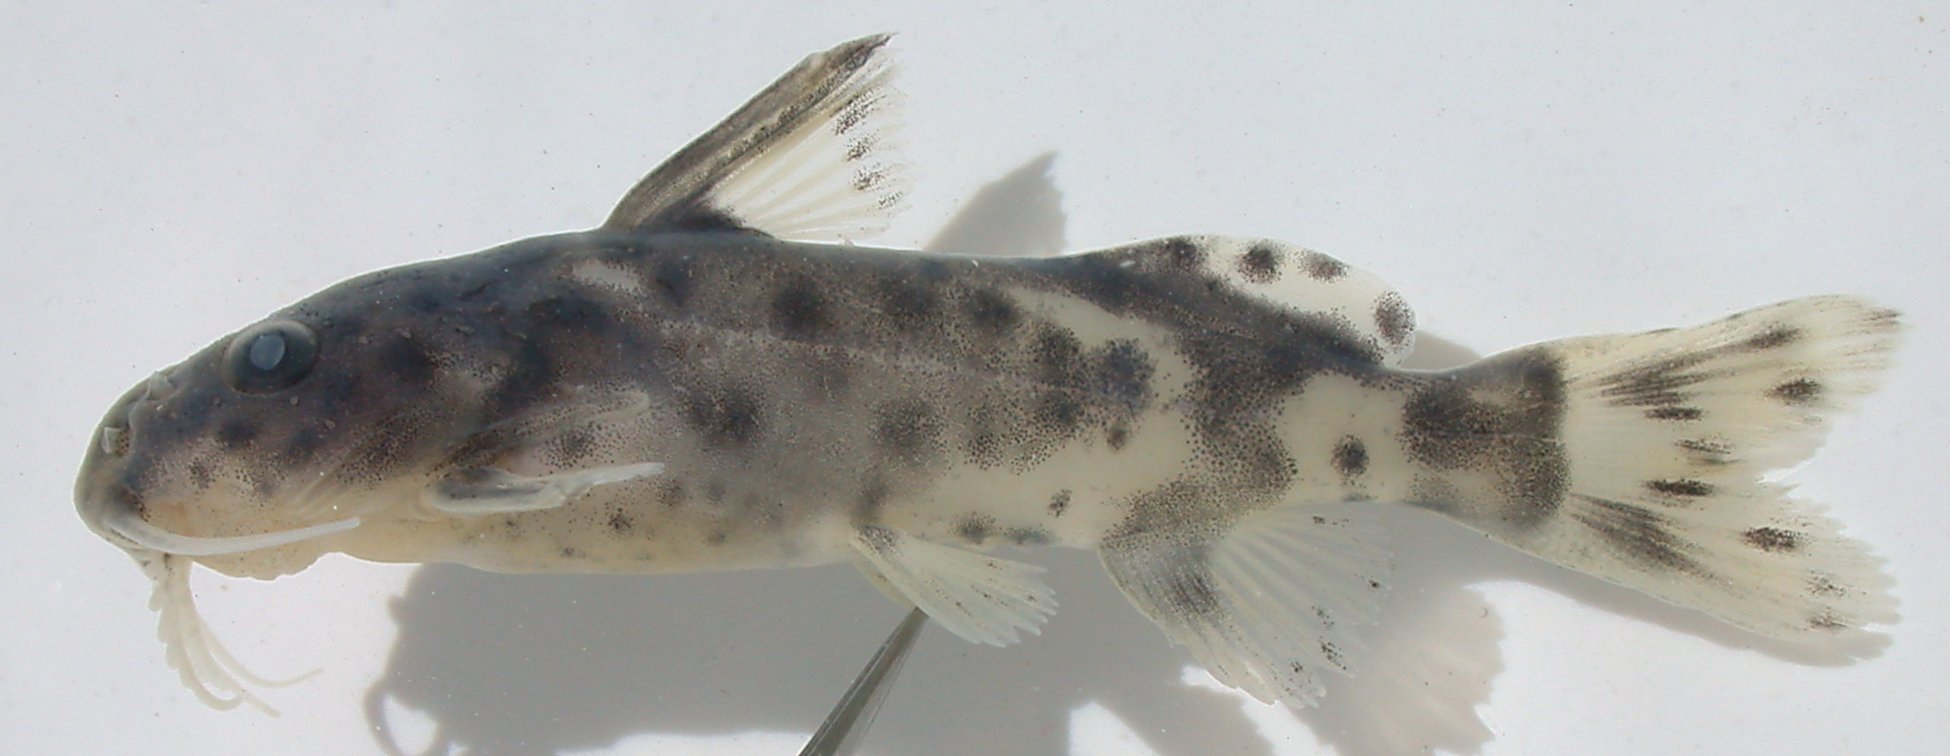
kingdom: Animalia
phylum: Chordata
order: Siluriformes
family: Mochokidae
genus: Synodontis
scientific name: Synodontis zambezensis
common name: Brown squeaker
